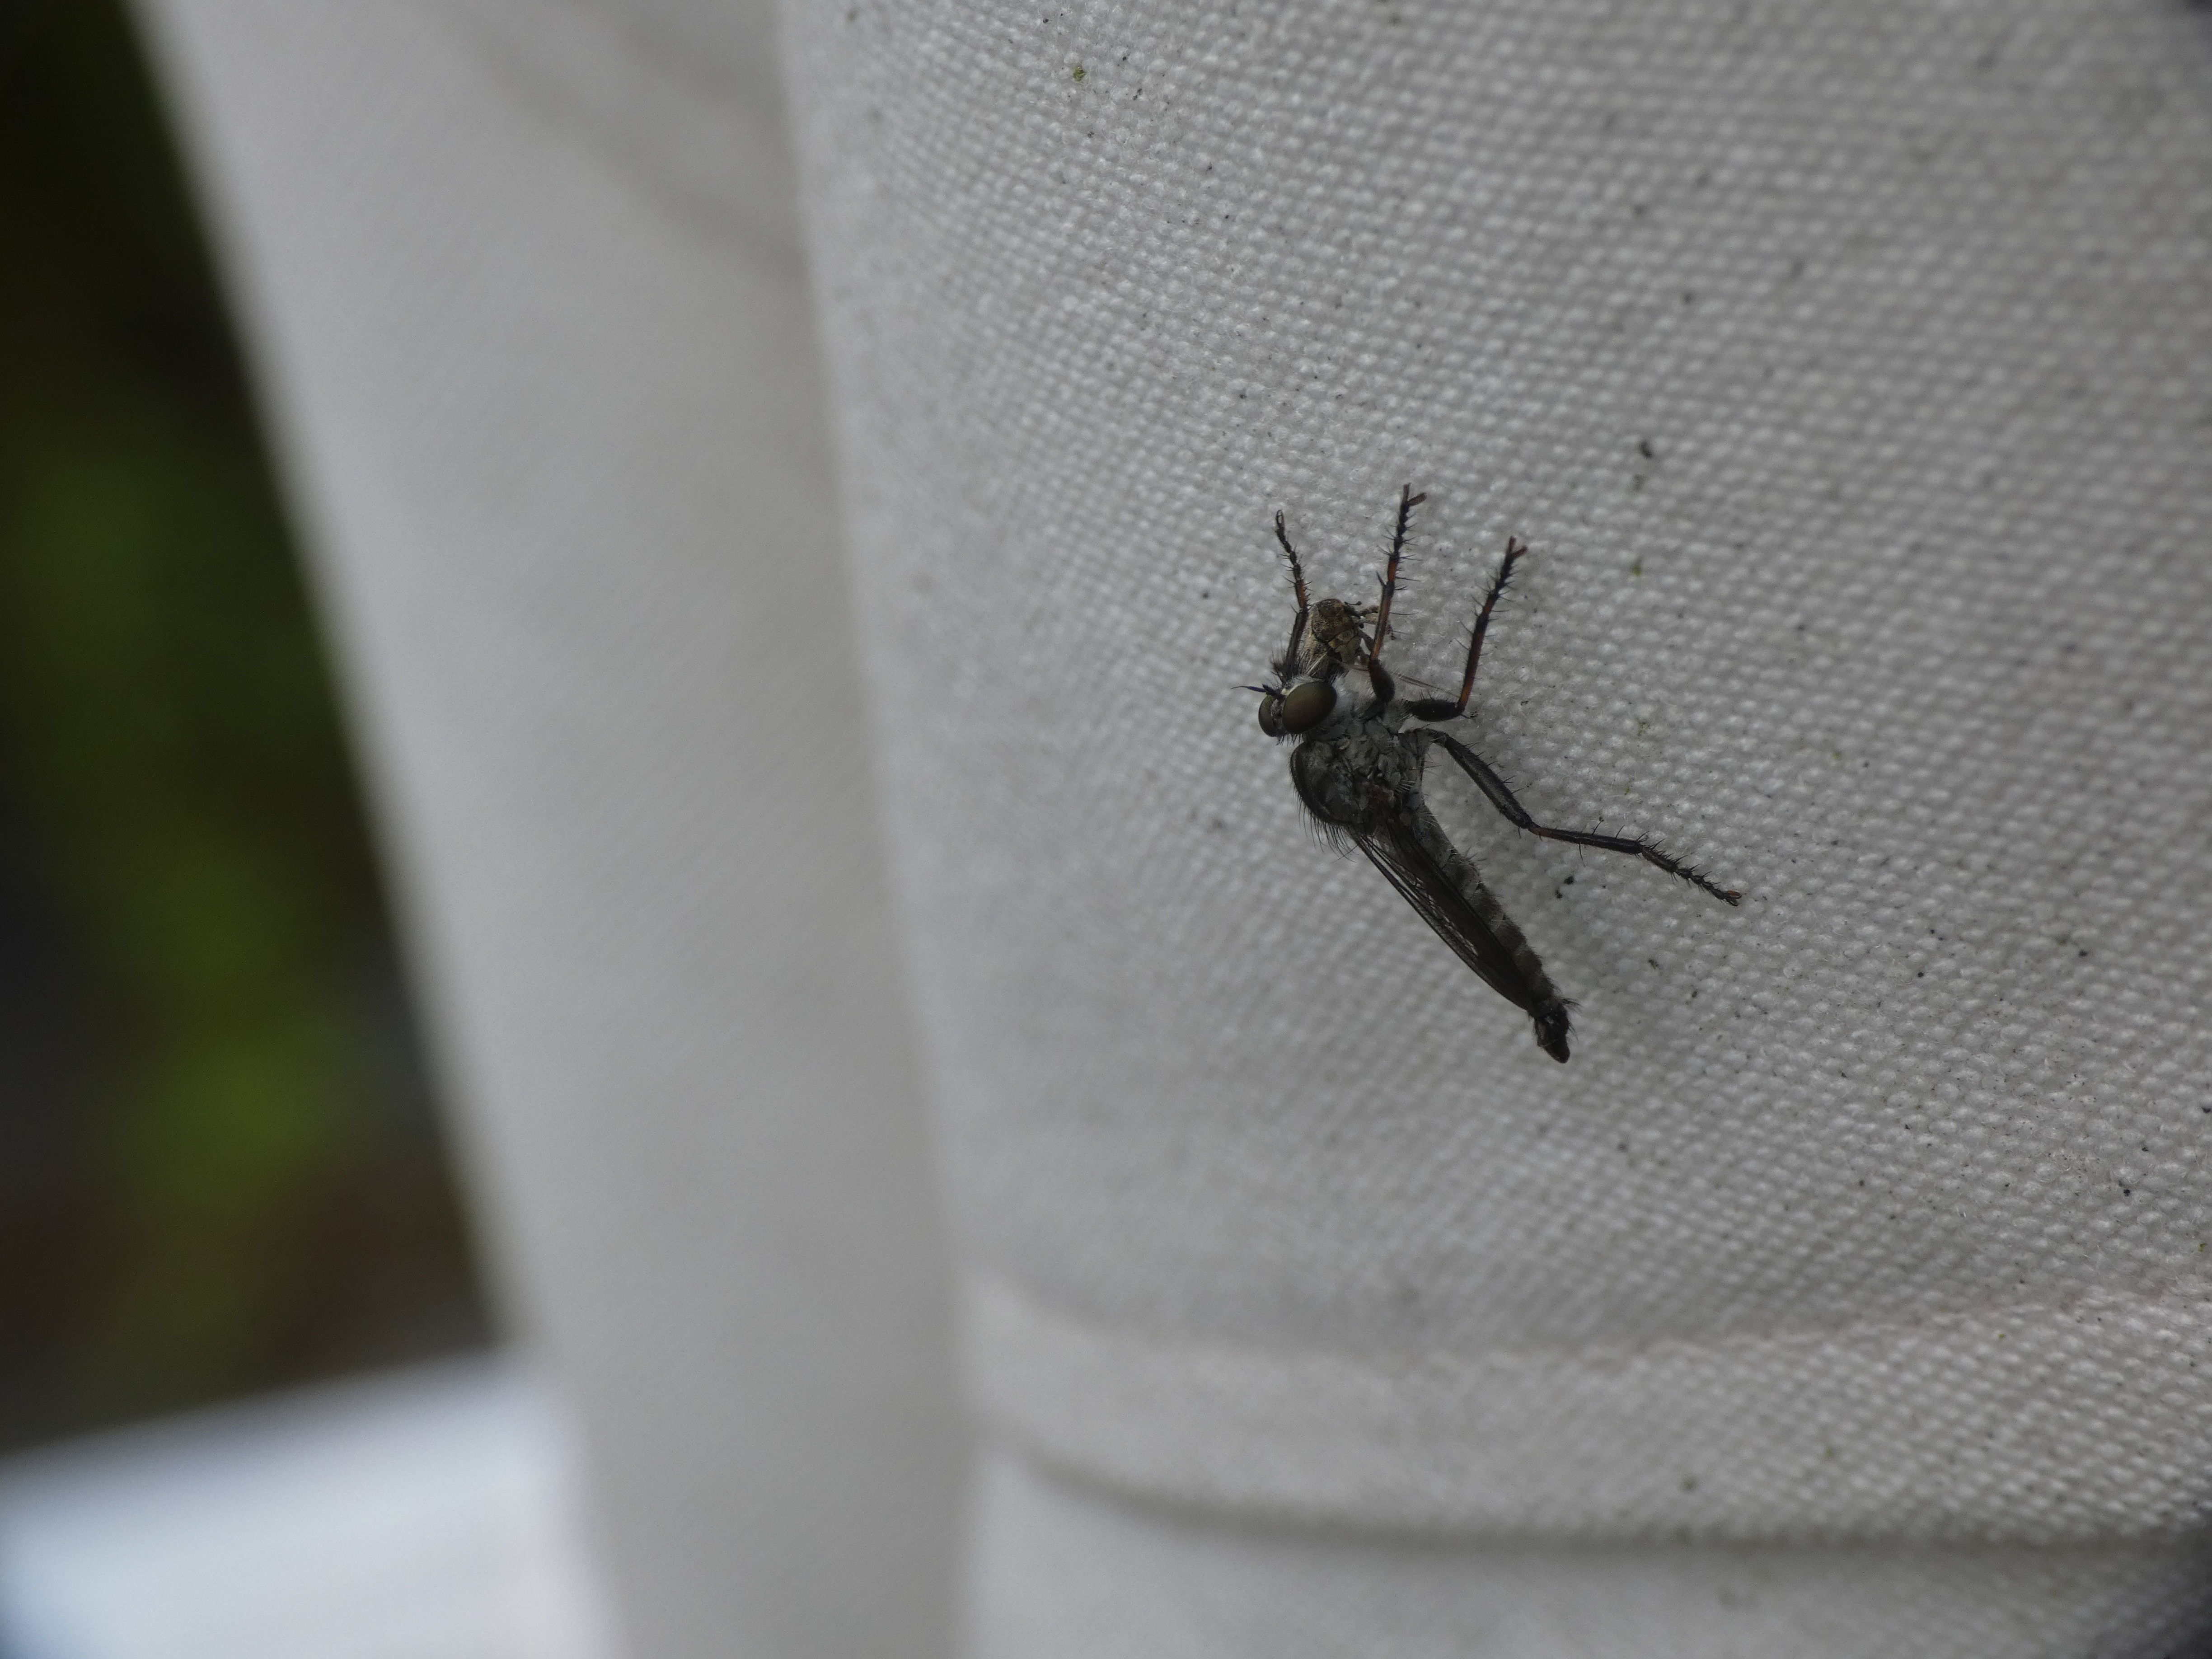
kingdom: Animalia
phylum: Arthropoda
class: Insecta
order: Diptera
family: Asilidae
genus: Machimus
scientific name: Machimus atricapillus
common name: Sort hårrovflue
